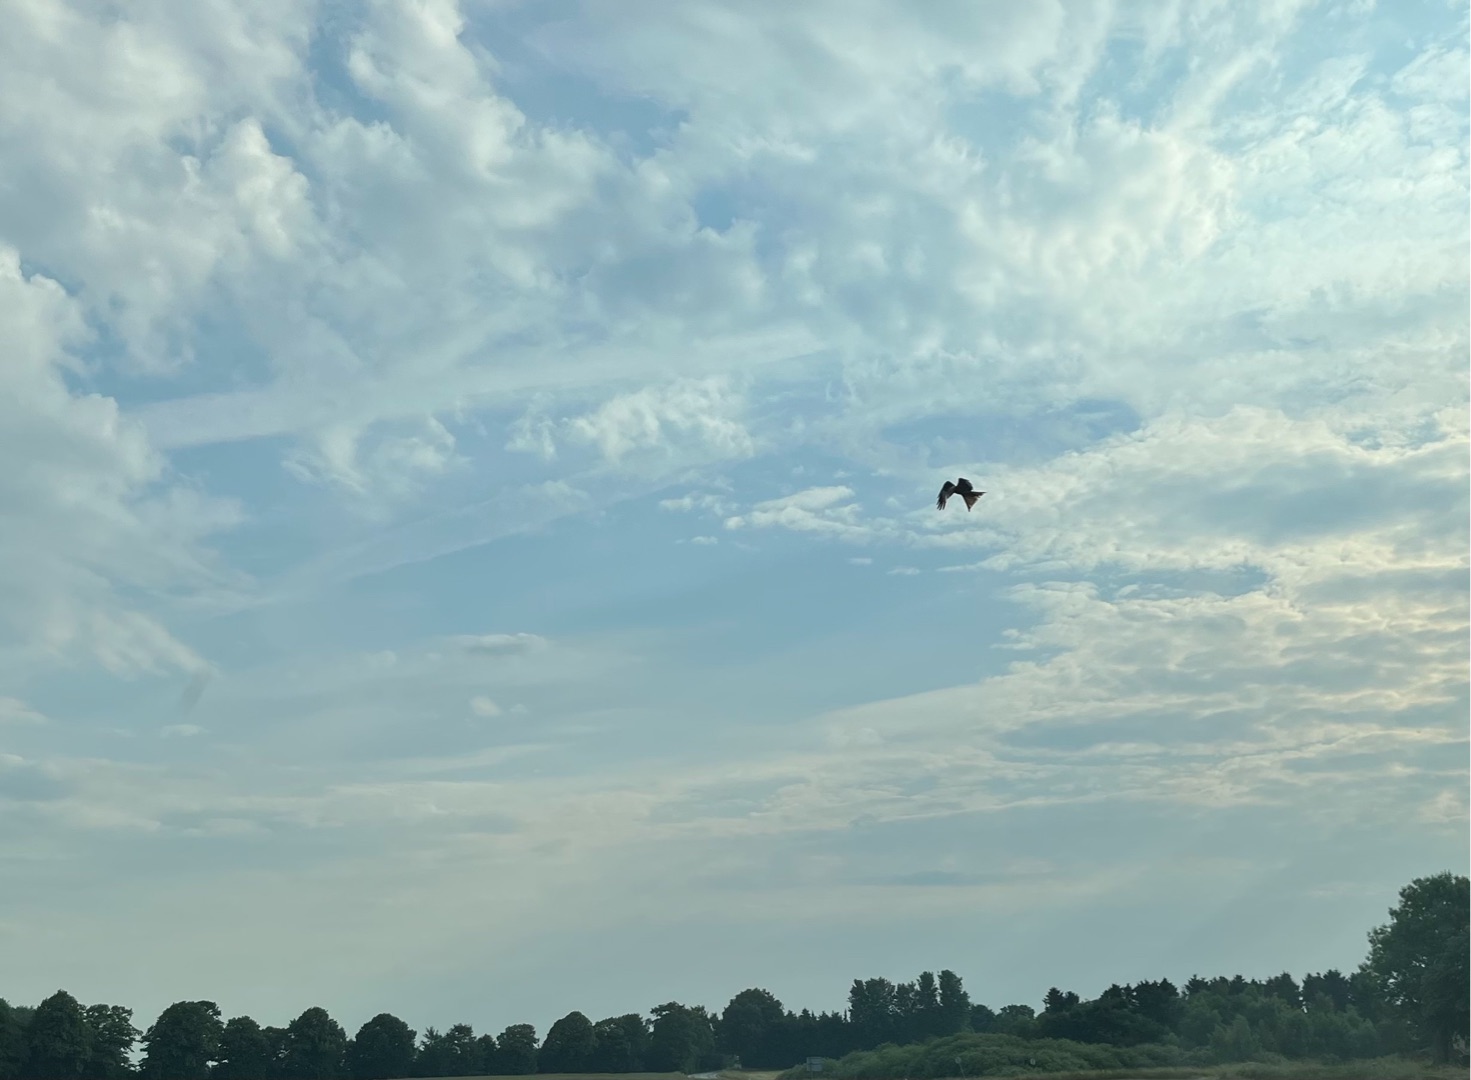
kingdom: Animalia
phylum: Chordata
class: Aves
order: Accipitriformes
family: Accipitridae
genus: Milvus
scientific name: Milvus milvus
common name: Rød glente
